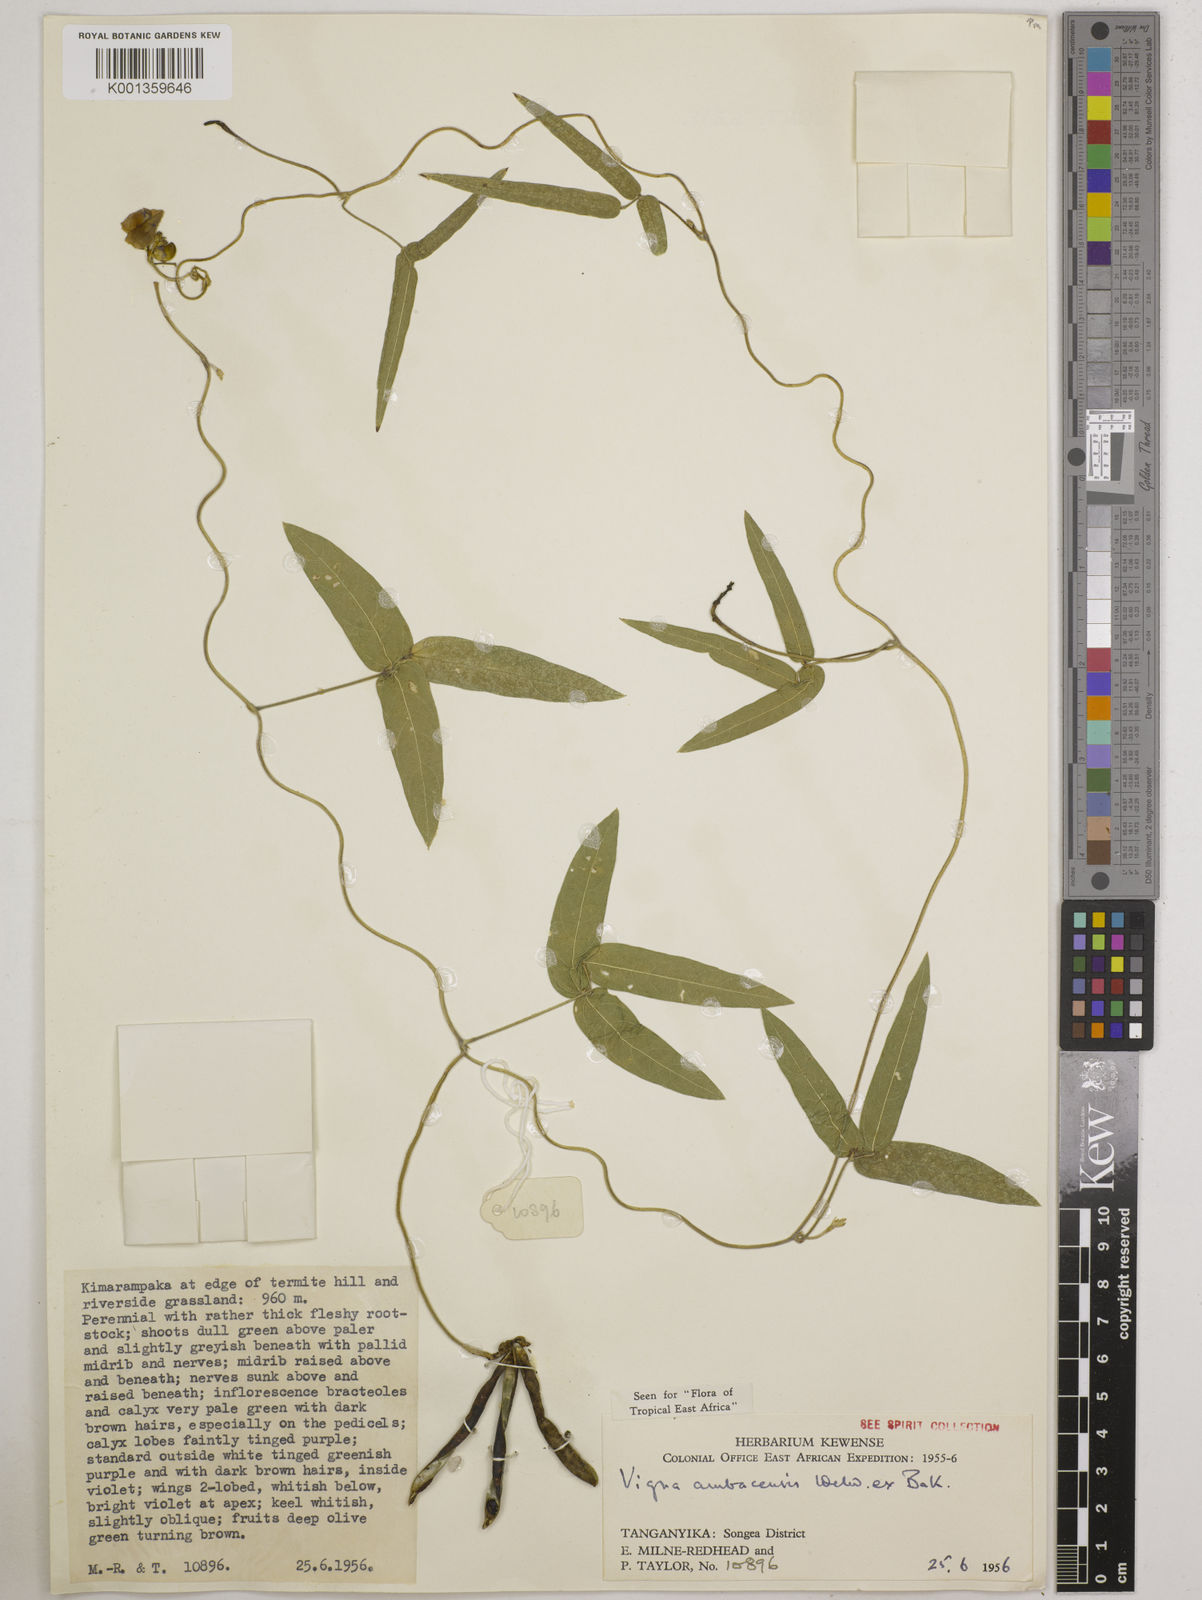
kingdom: Plantae
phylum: Tracheophyta
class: Magnoliopsida
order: Fabales
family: Fabaceae
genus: Vigna
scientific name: Vigna ambacensis
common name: Tsarkiyan zomo
